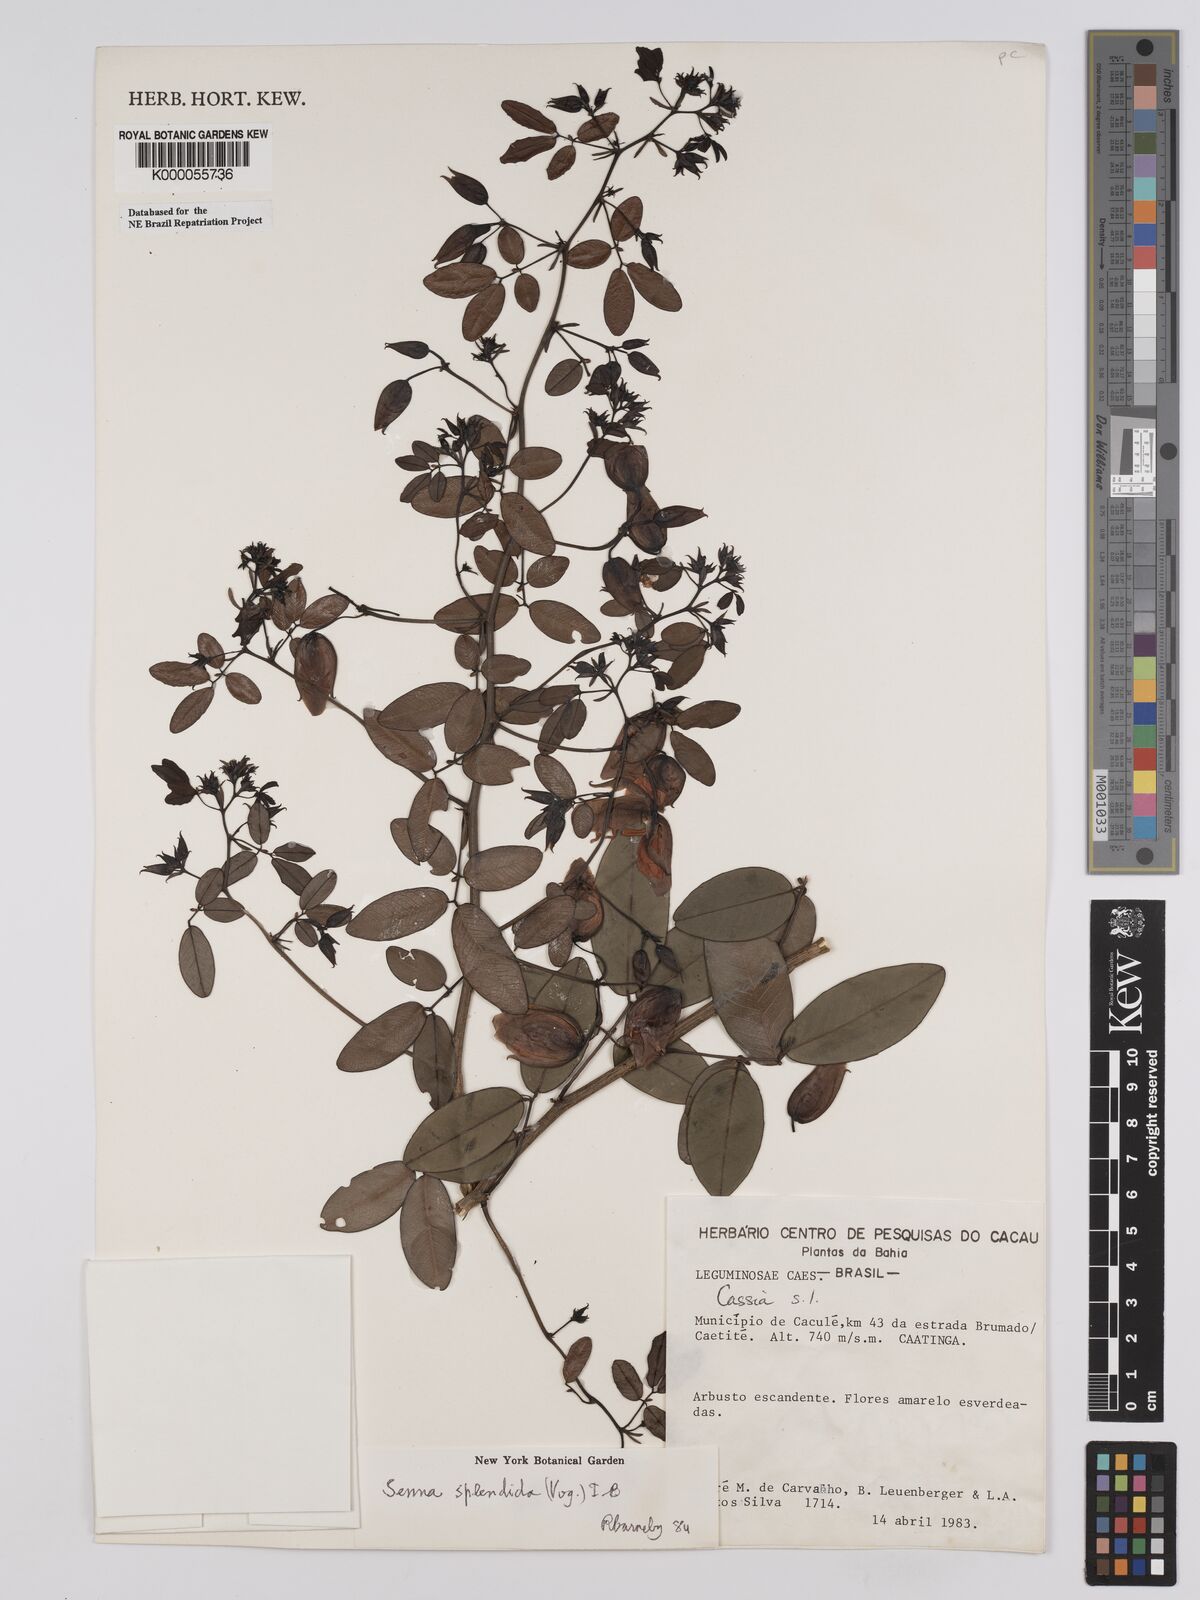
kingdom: Plantae
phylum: Tracheophyta
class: Magnoliopsida
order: Fabales
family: Fabaceae
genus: Senna
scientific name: Senna splendida
